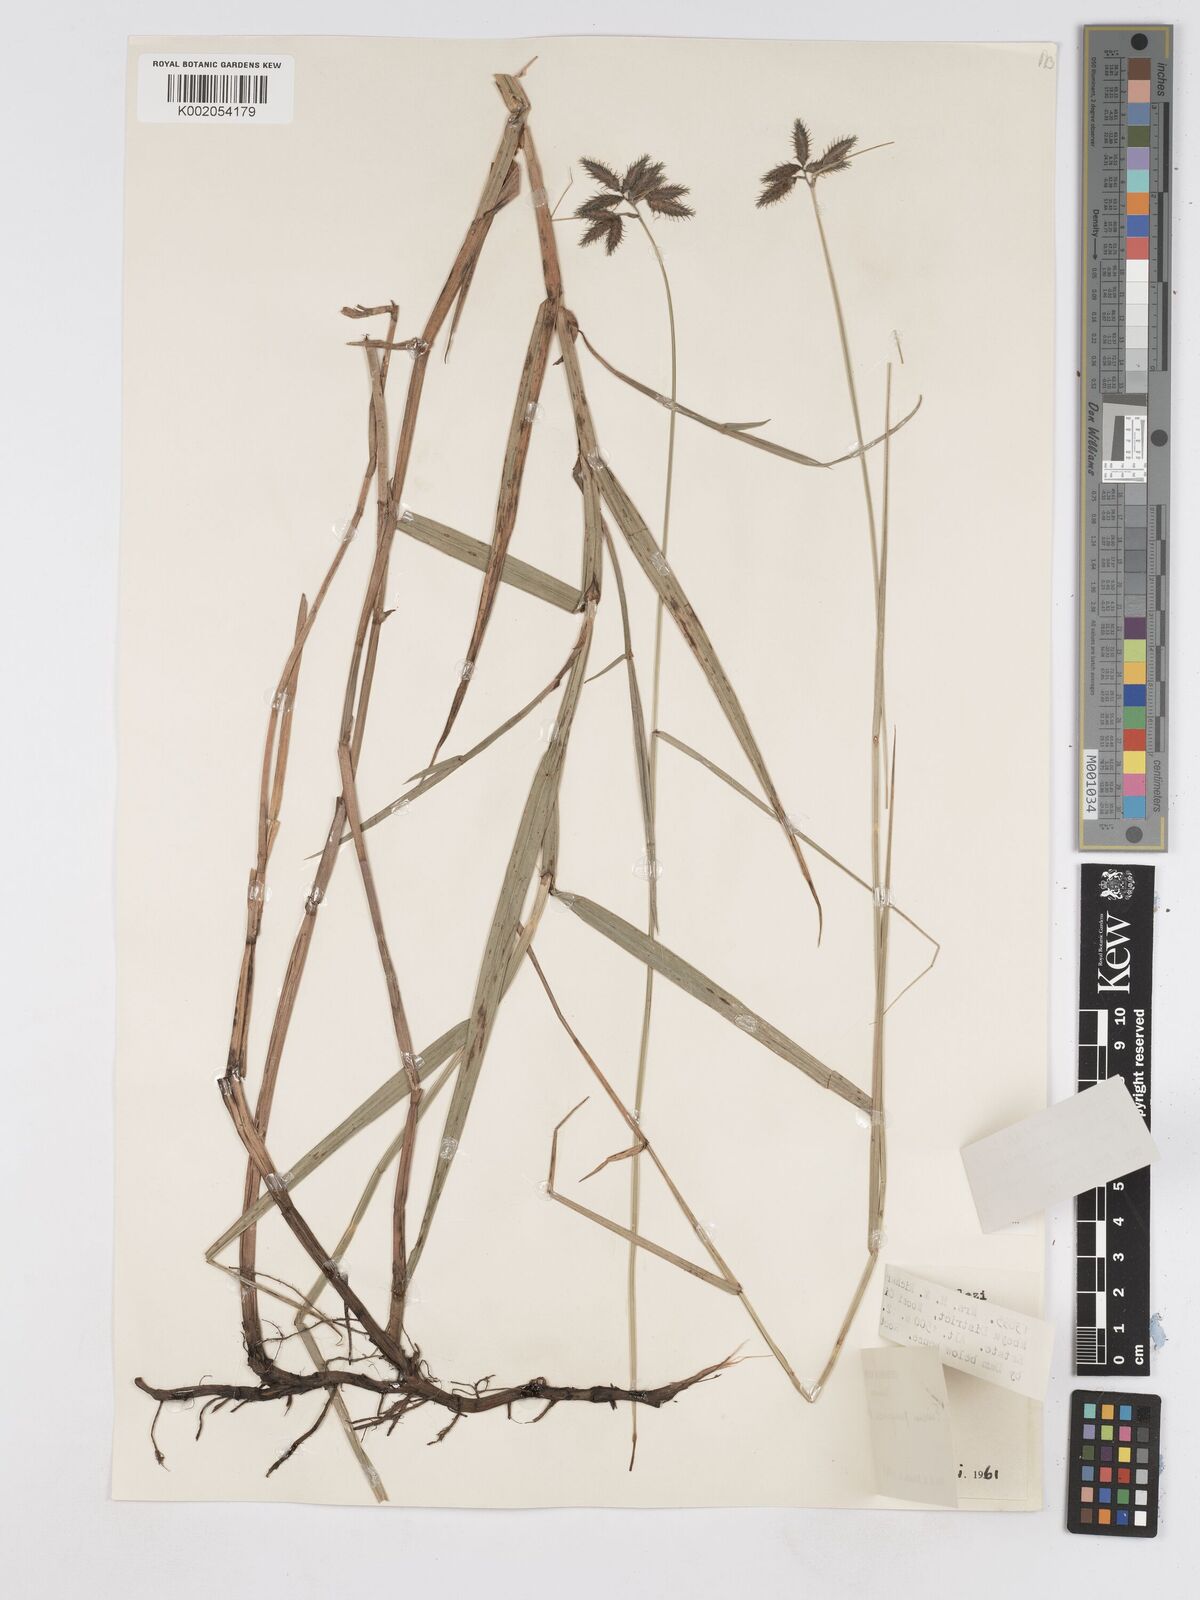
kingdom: Plantae
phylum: Tracheophyta
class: Liliopsida
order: Poales
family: Cyperaceae
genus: Fuirena
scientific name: Fuirena pachyrrhiza
